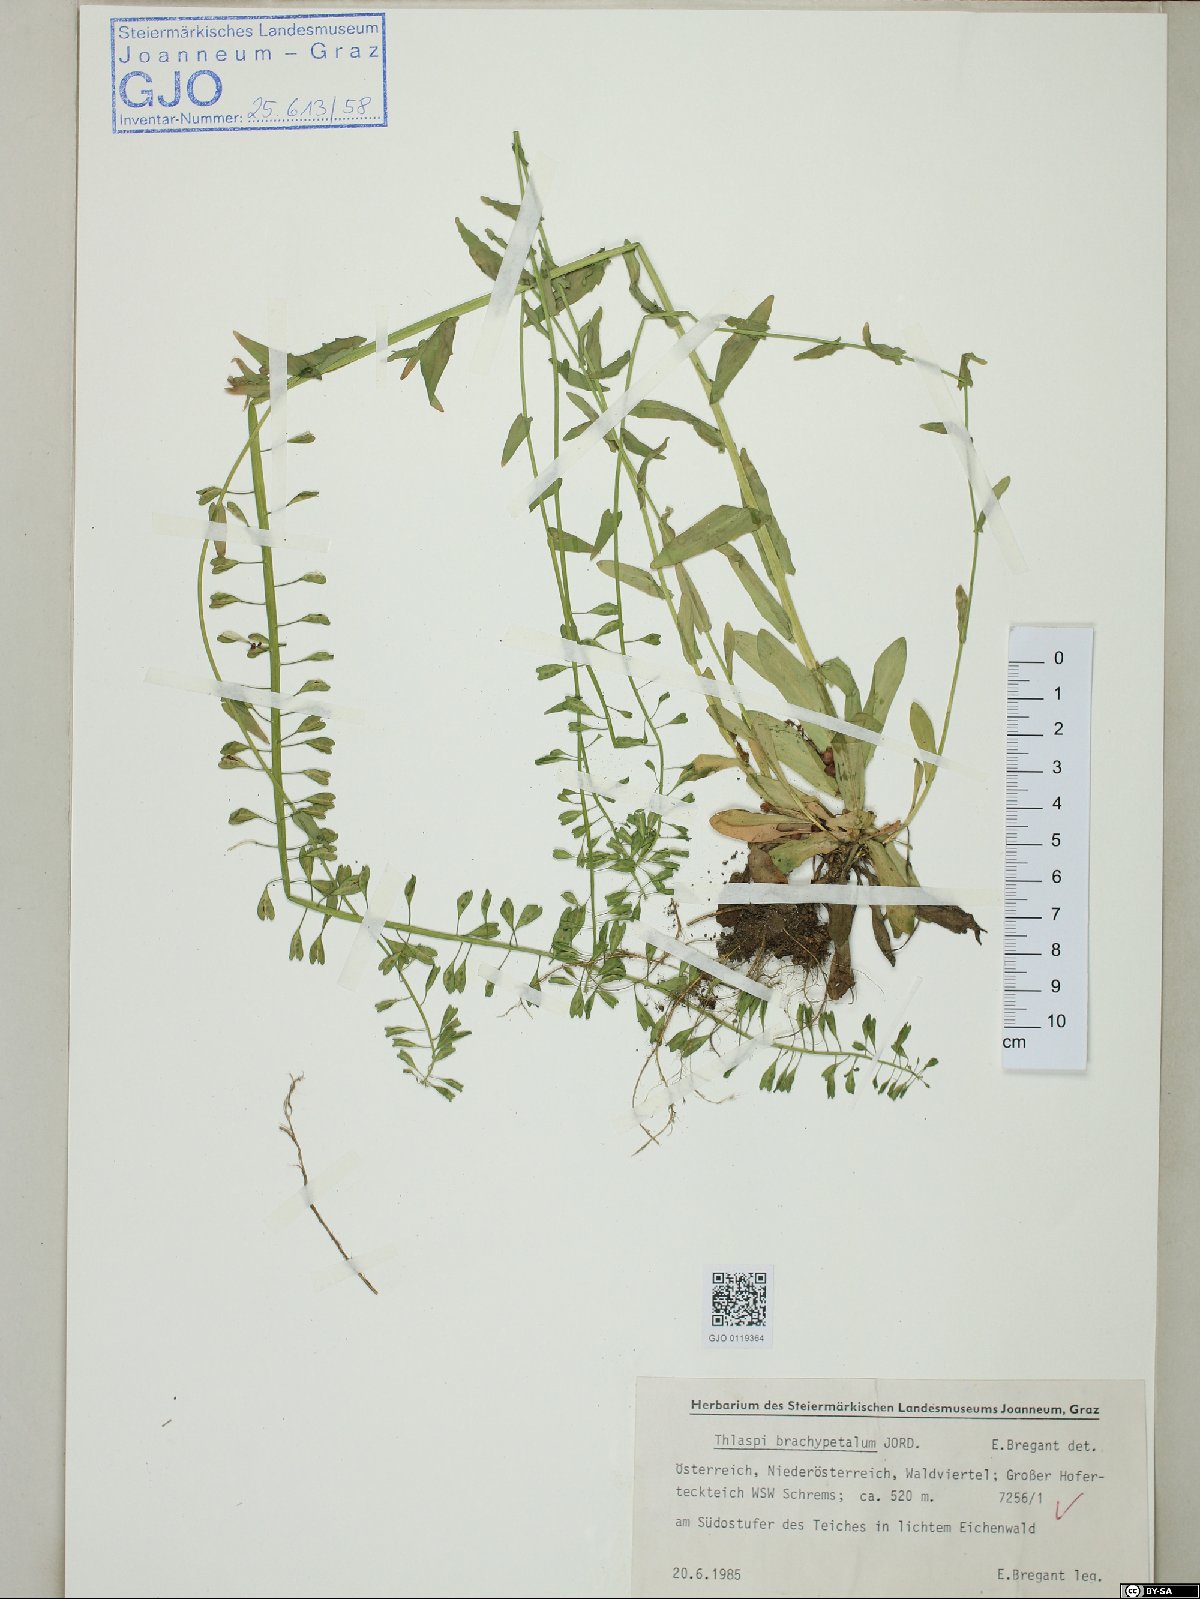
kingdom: Plantae
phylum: Tracheophyta
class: Magnoliopsida
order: Brassicales
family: Brassicaceae
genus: Noccaea
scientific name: Noccaea brachypetala
